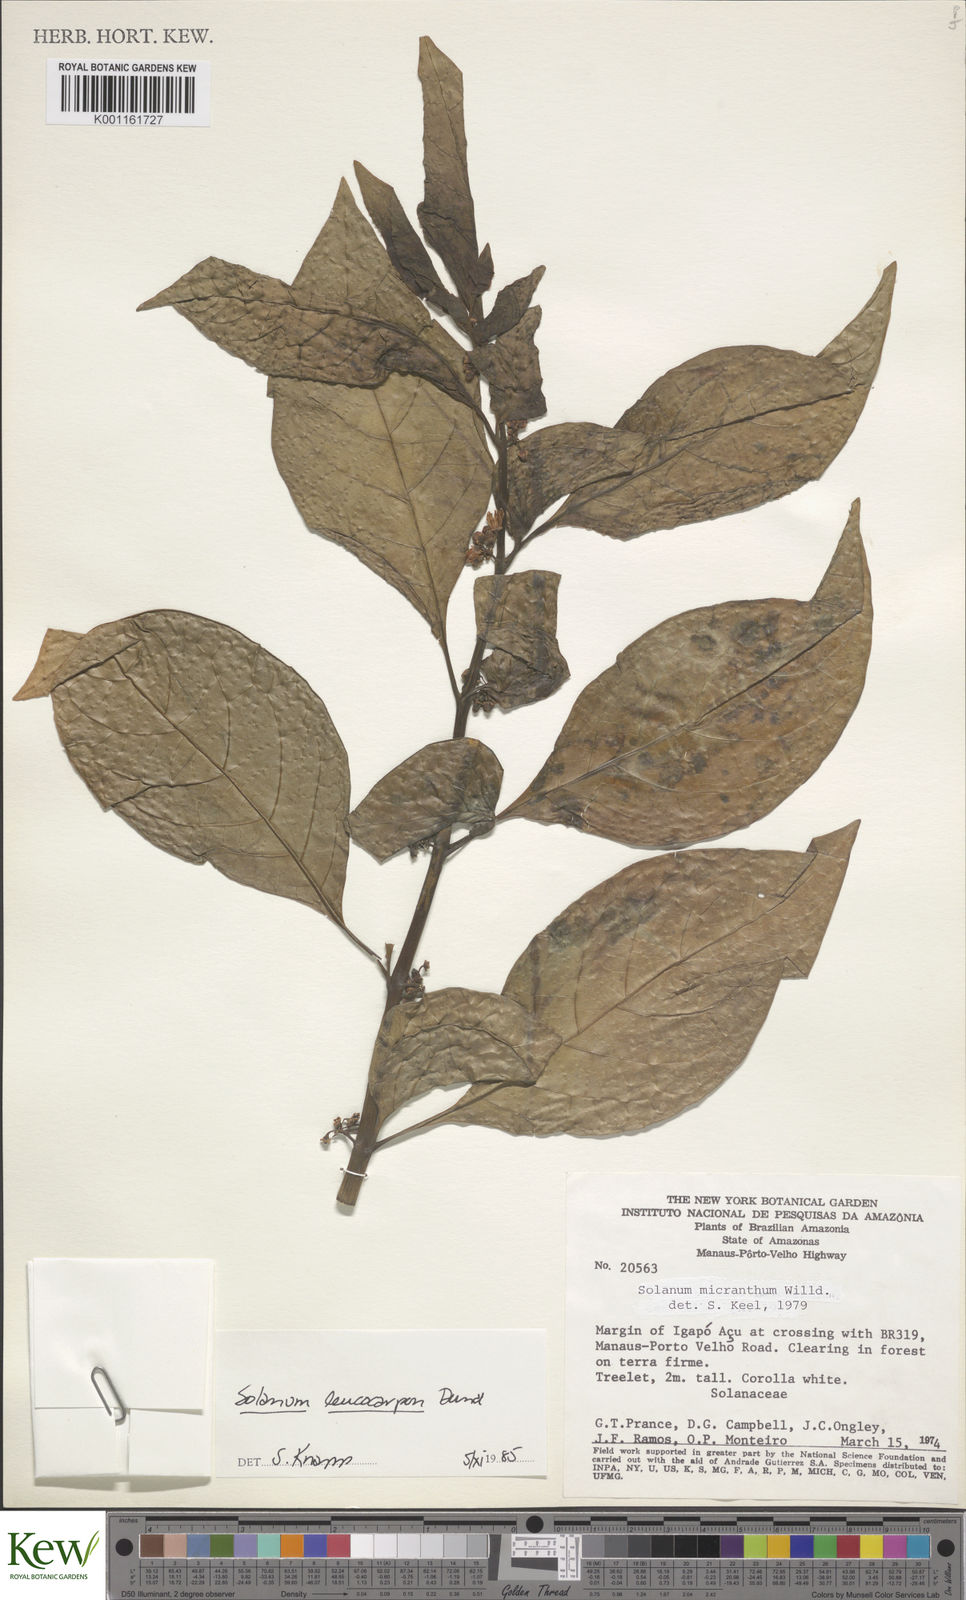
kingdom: Plantae
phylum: Tracheophyta
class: Magnoliopsida
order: Solanales
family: Solanaceae
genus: Solanum
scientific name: Solanum leucocarpon
